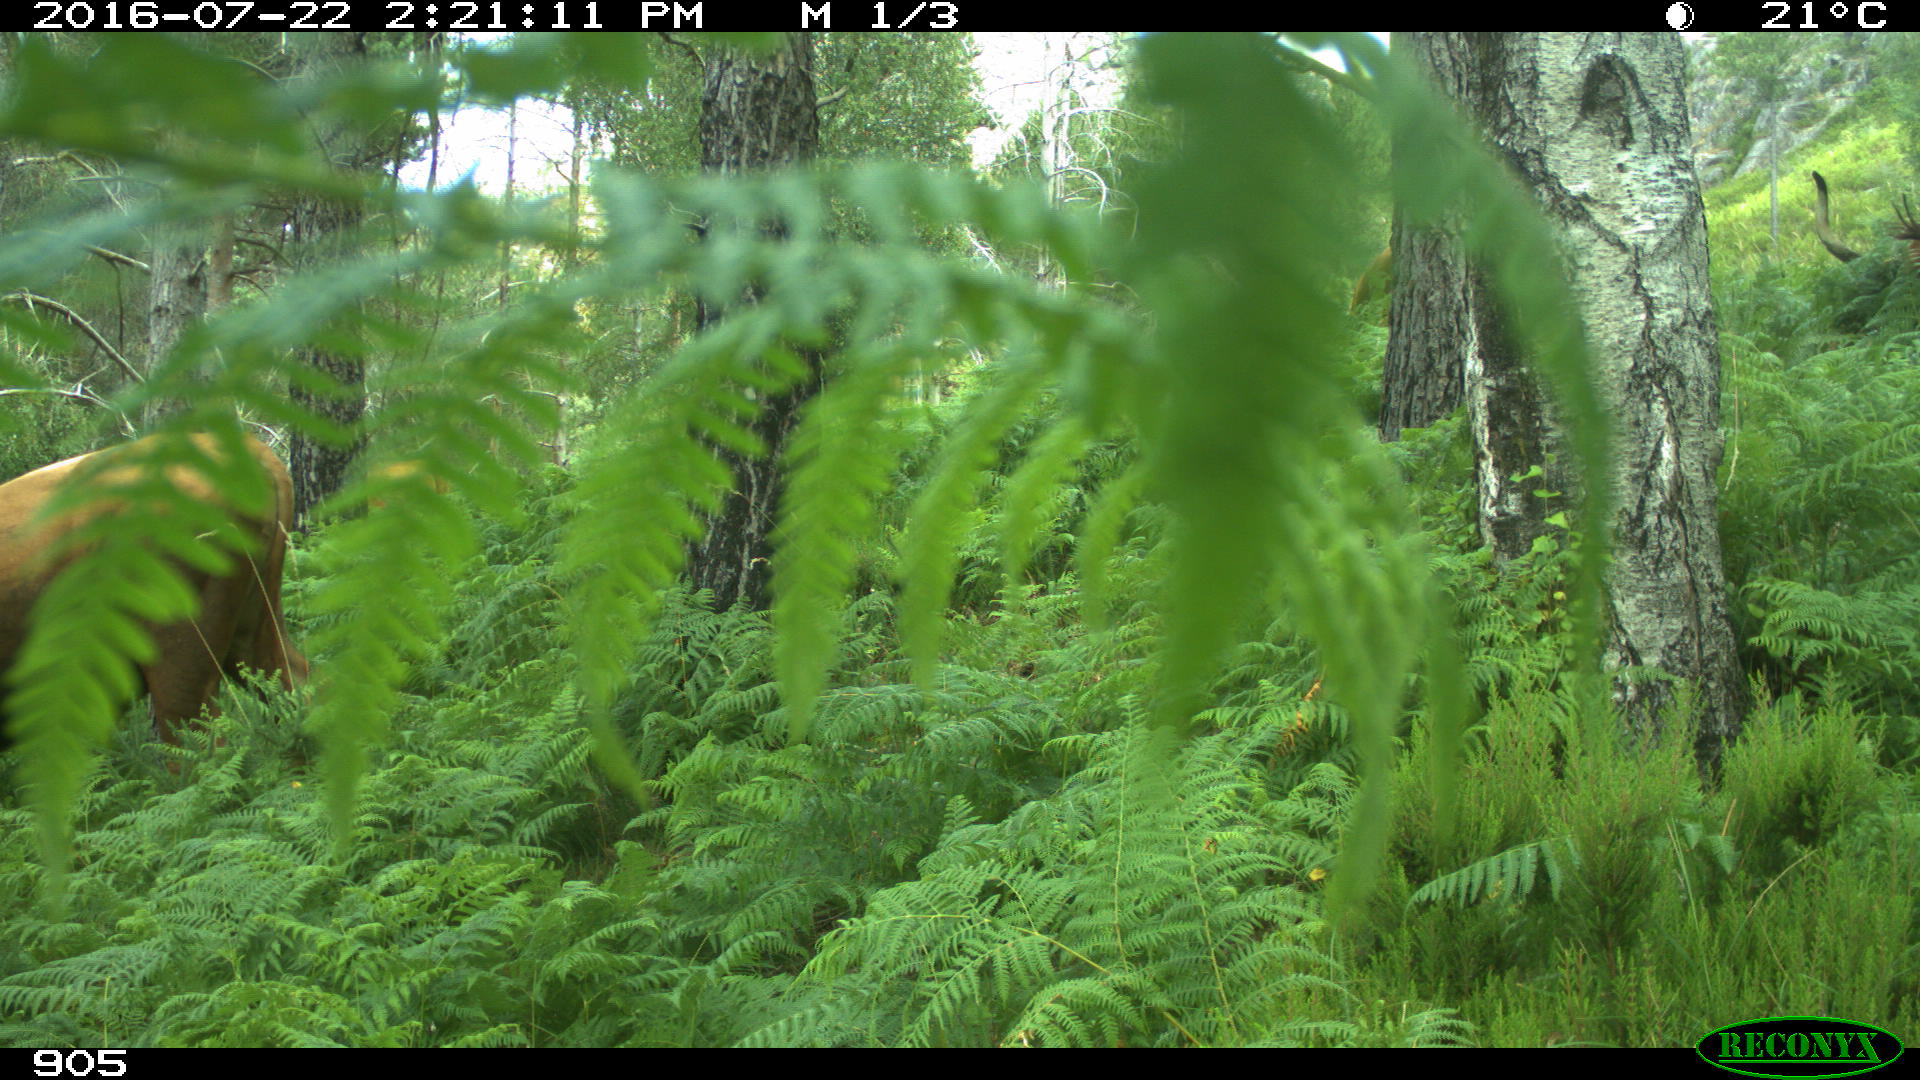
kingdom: Animalia
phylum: Chordata
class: Mammalia
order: Artiodactyla
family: Bovidae
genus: Bos
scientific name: Bos taurus
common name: Domesticated cattle
